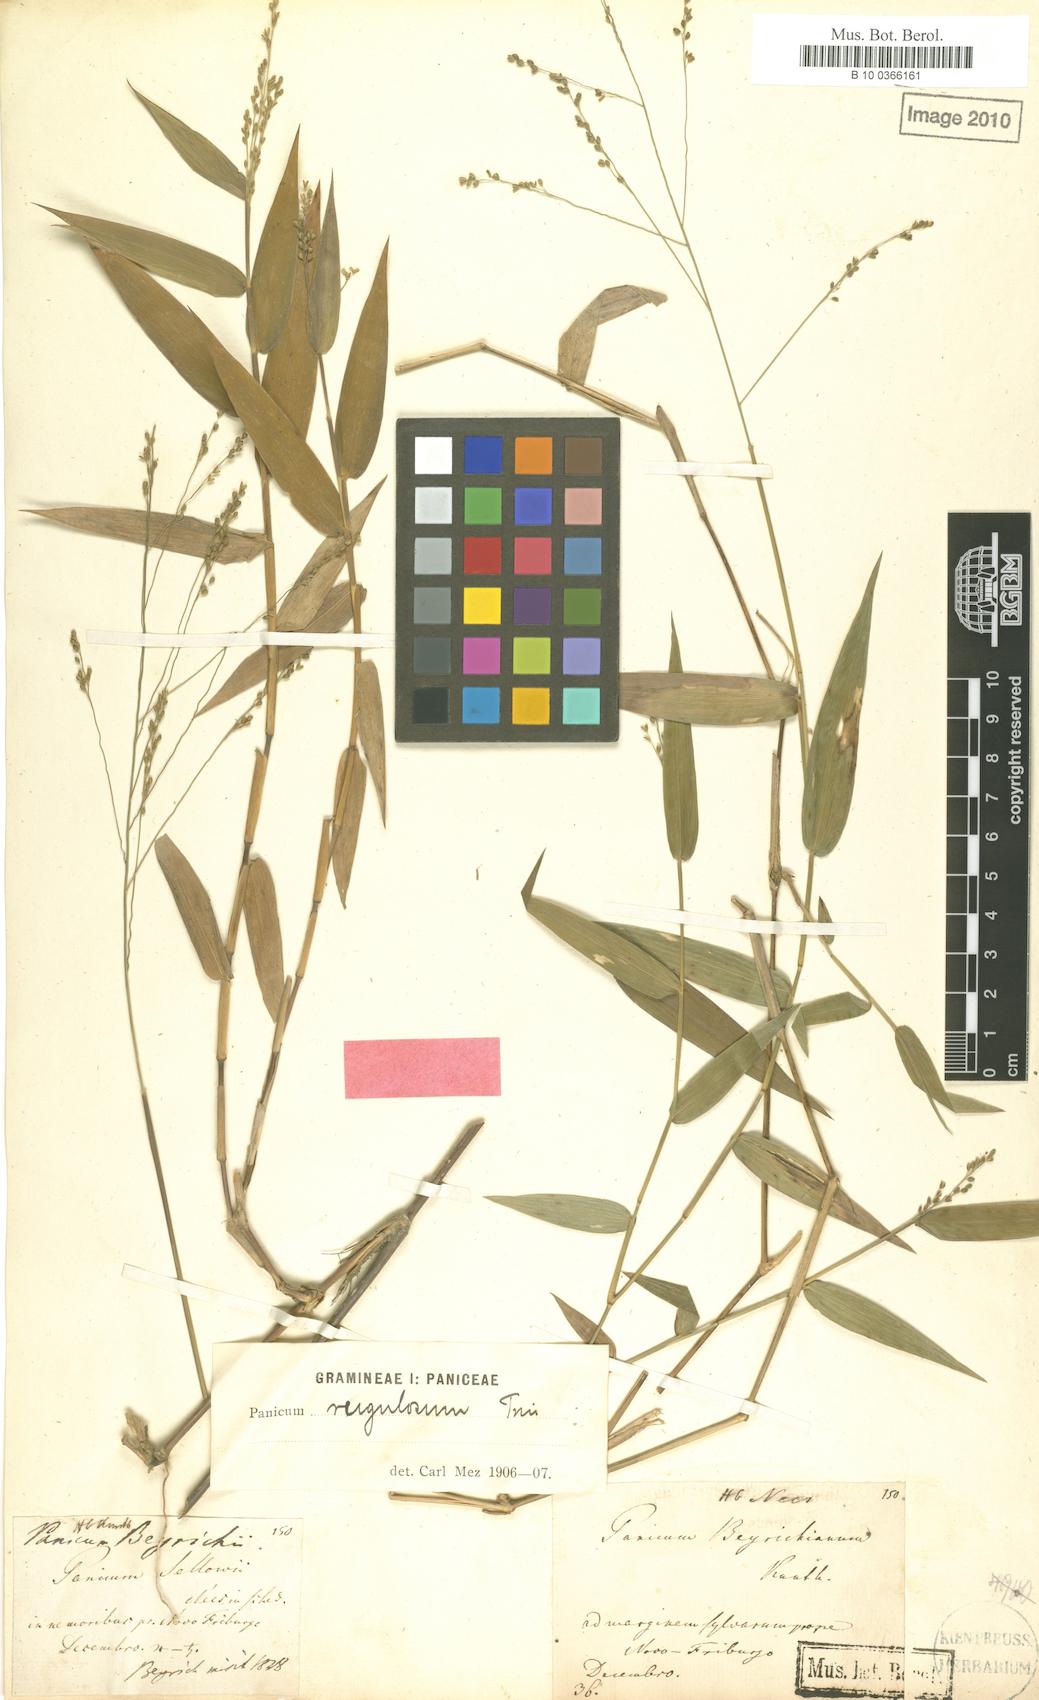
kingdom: Plantae
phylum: Tracheophyta
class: Liliopsida
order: Poales
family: Poaceae
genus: Panicum
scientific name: Panicum millegrana
